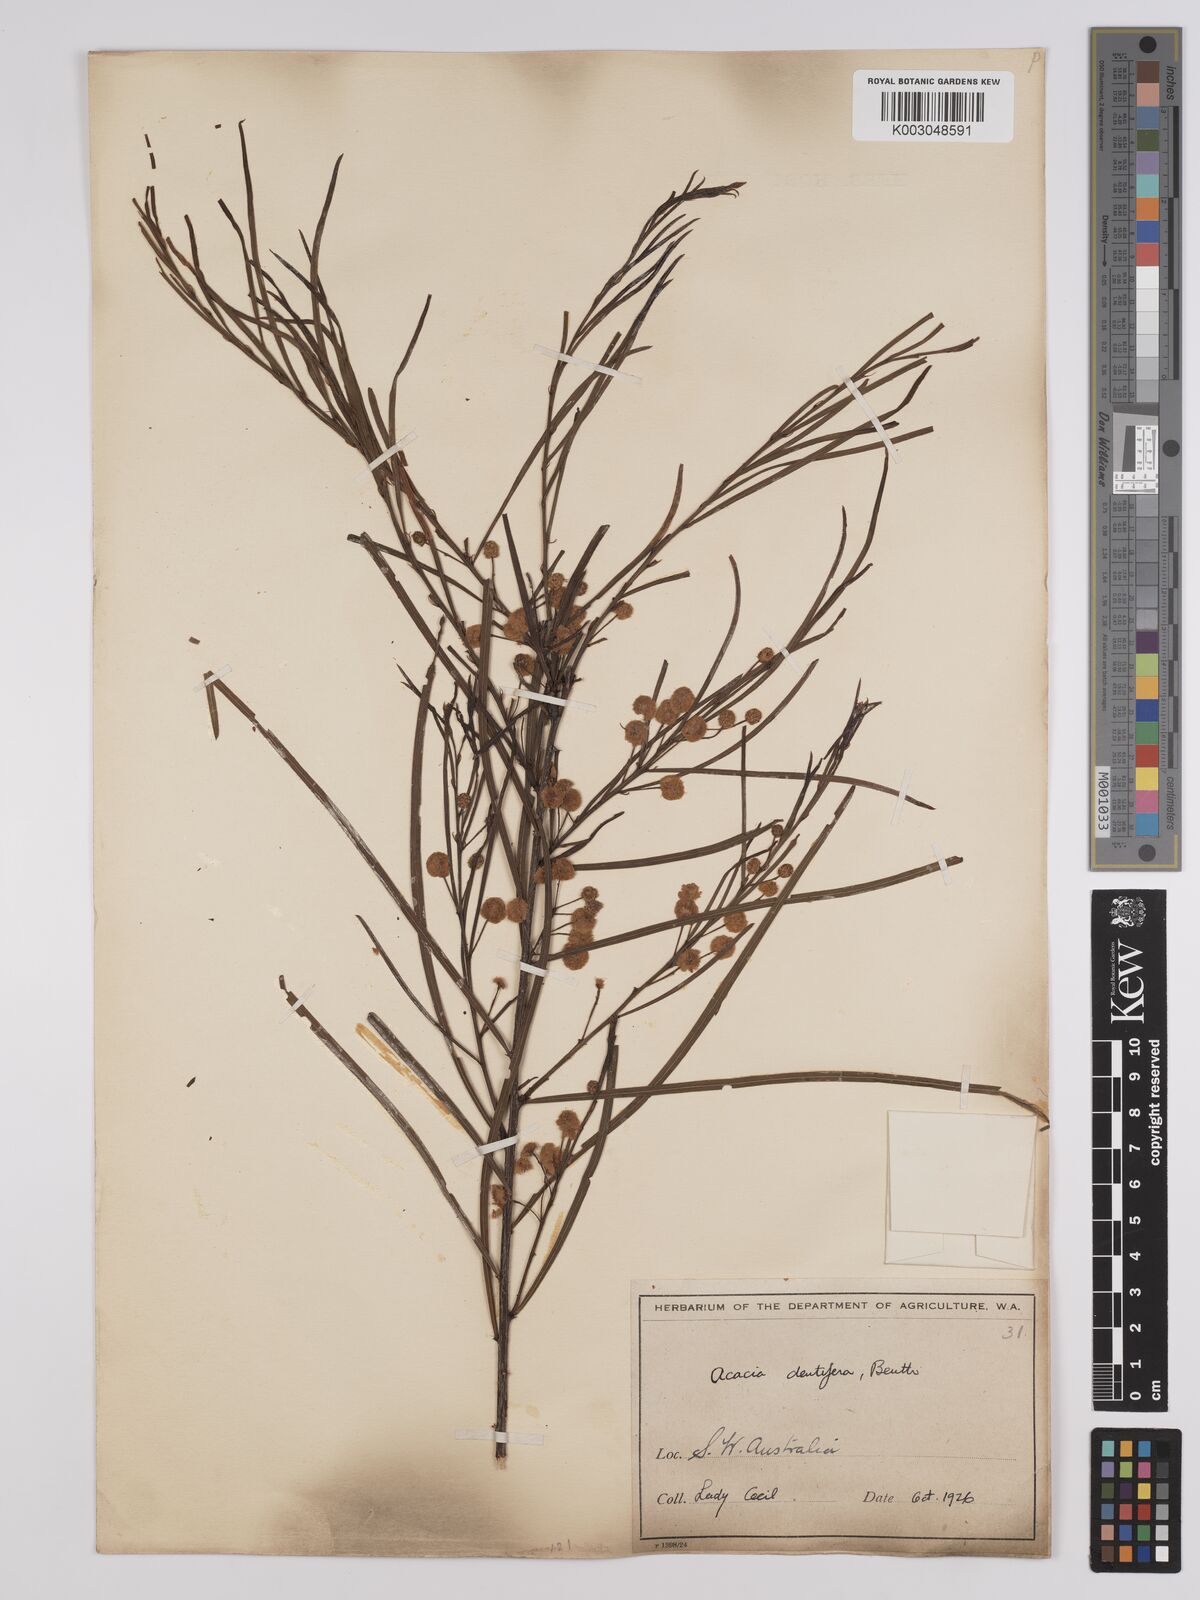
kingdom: Plantae
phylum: Tracheophyta
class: Magnoliopsida
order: Fabales
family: Fabaceae
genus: Acacia
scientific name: Acacia dentifera
